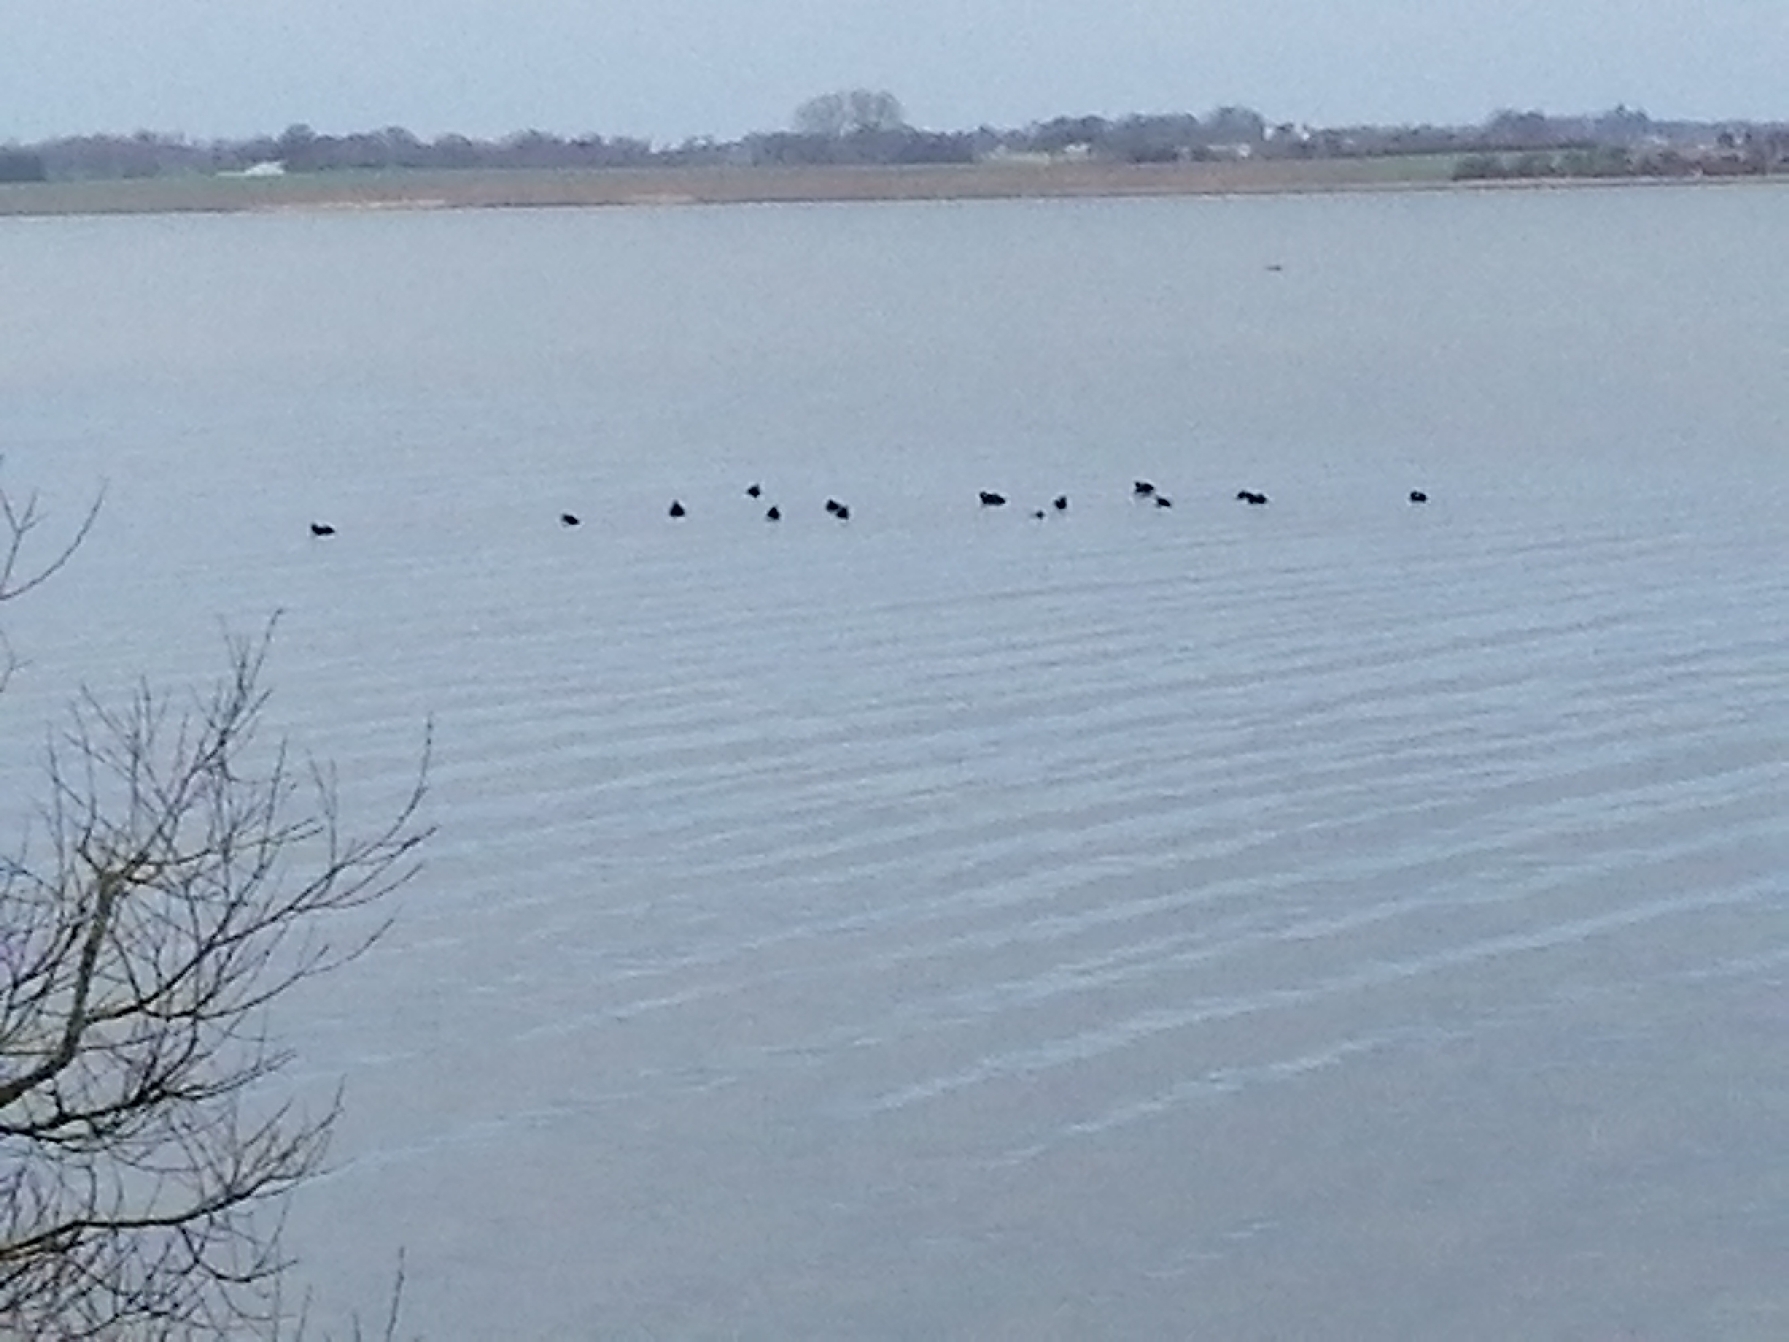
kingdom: Animalia
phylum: Chordata
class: Aves
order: Gruiformes
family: Rallidae
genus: Fulica
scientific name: Fulica atra
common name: Blishøne
